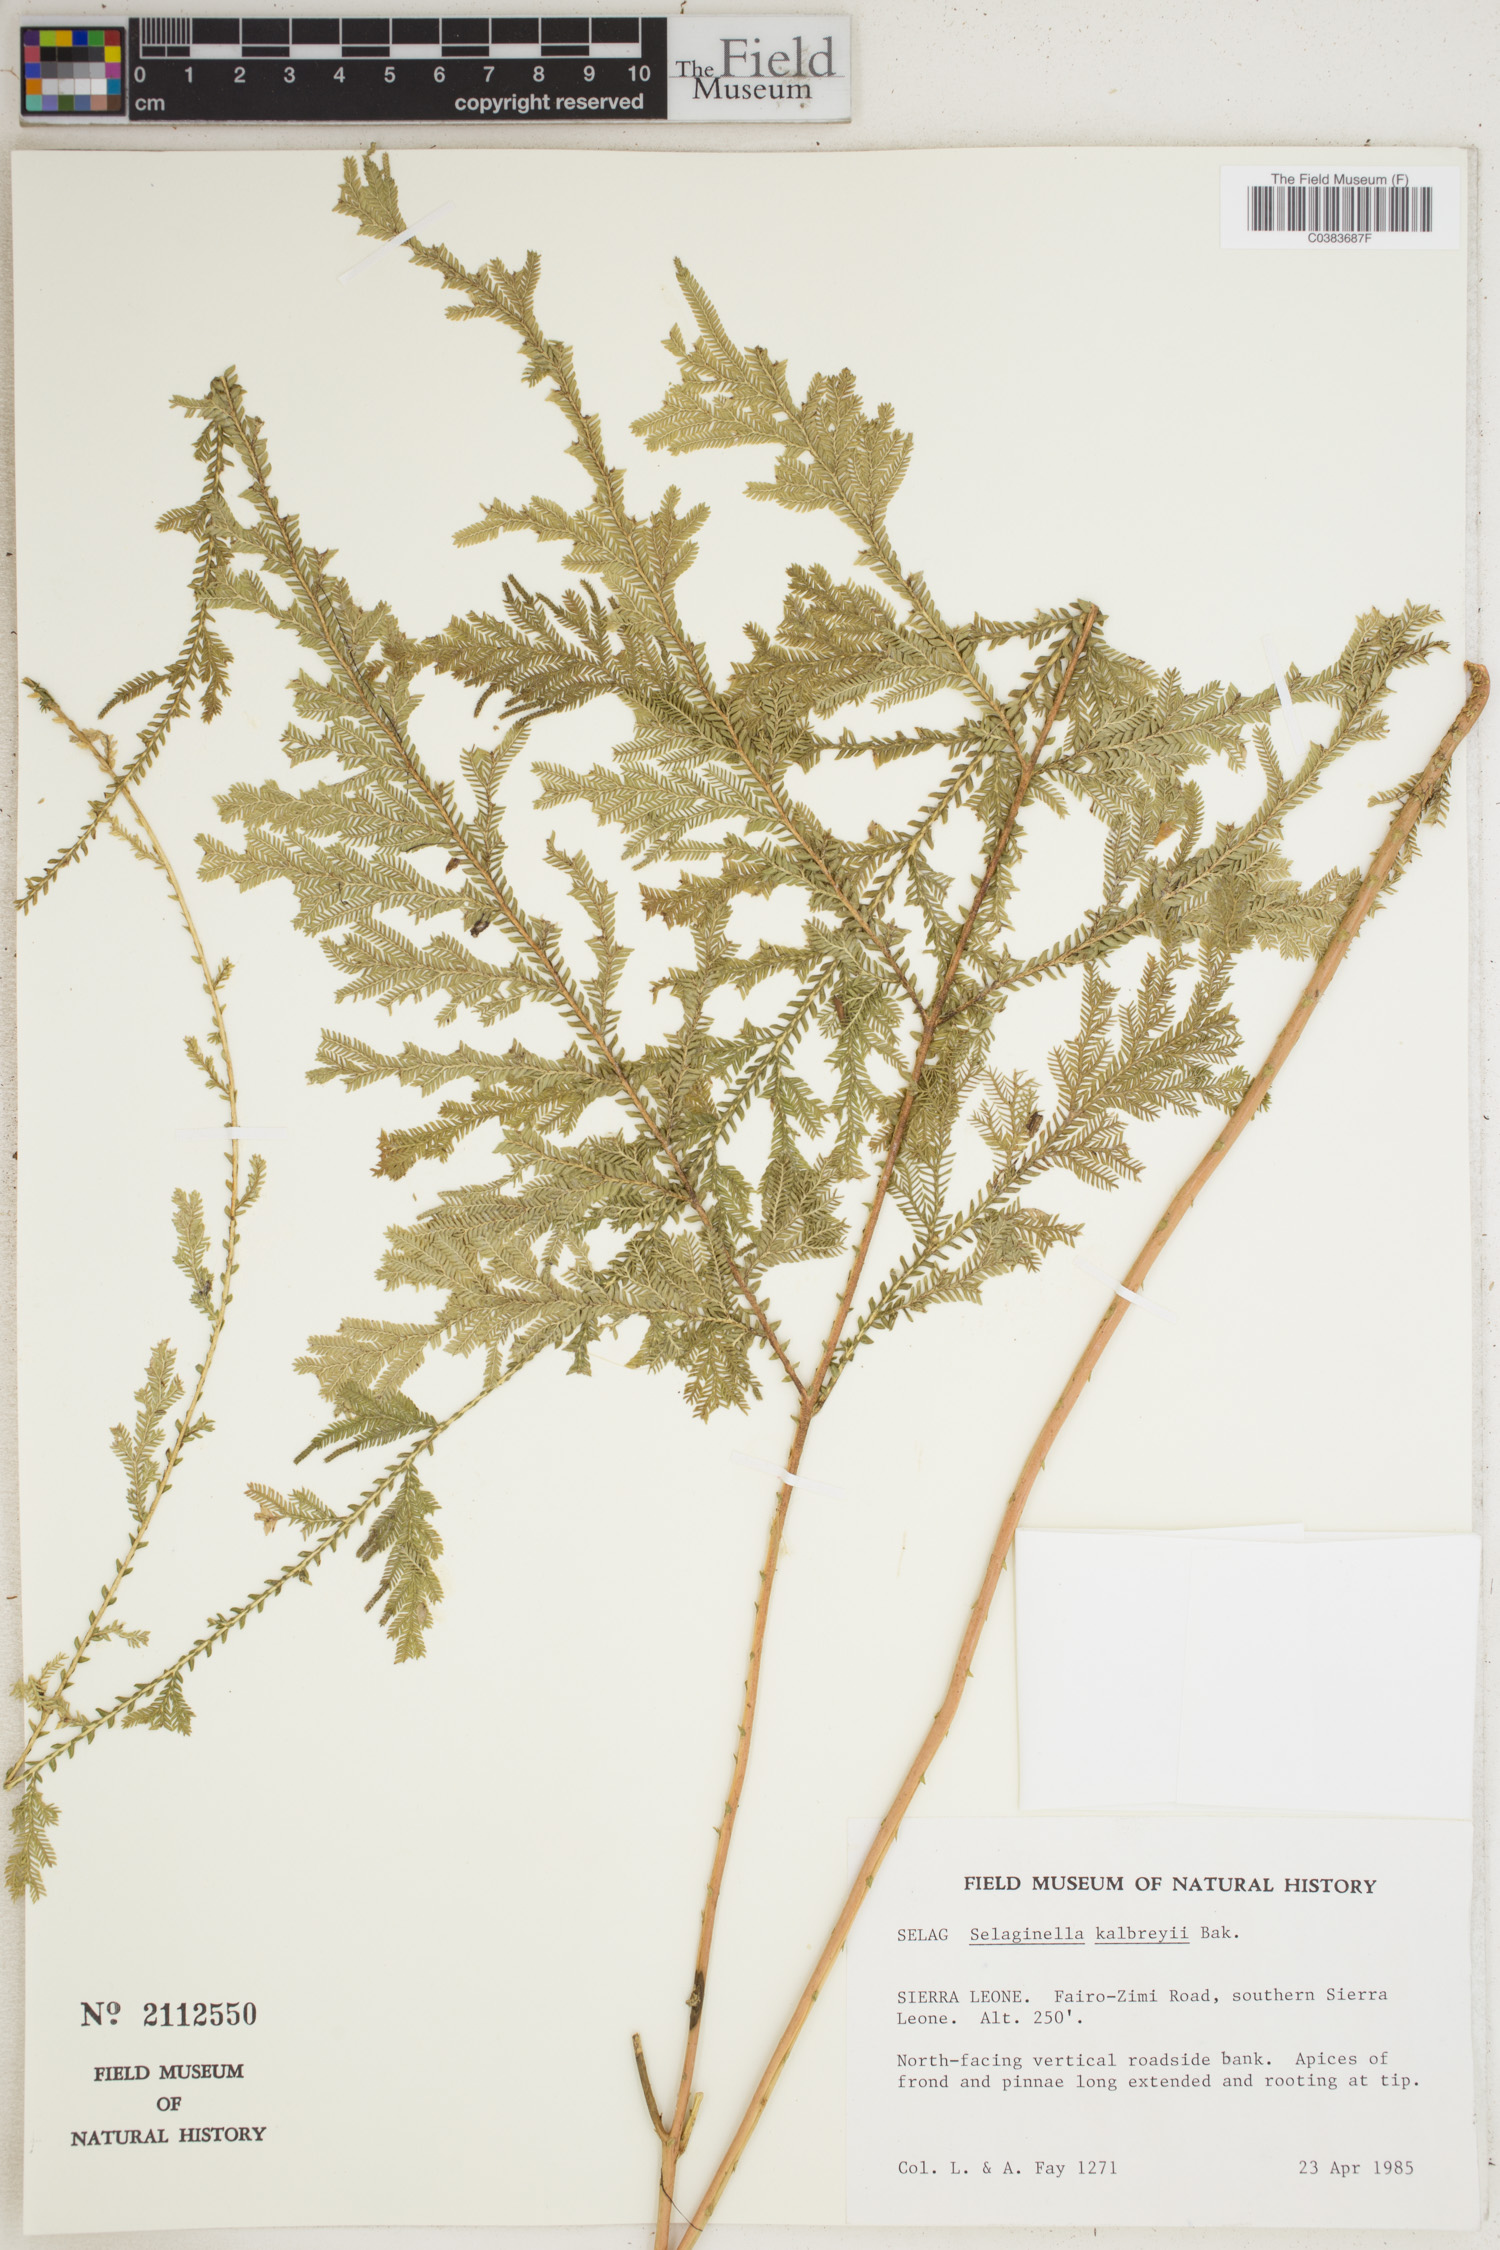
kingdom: Plantae
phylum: Tracheophyta
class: Lycopodiopsida
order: Selaginellales
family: Selaginellaceae
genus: Selaginella
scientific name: Selaginella kalbreyeri
